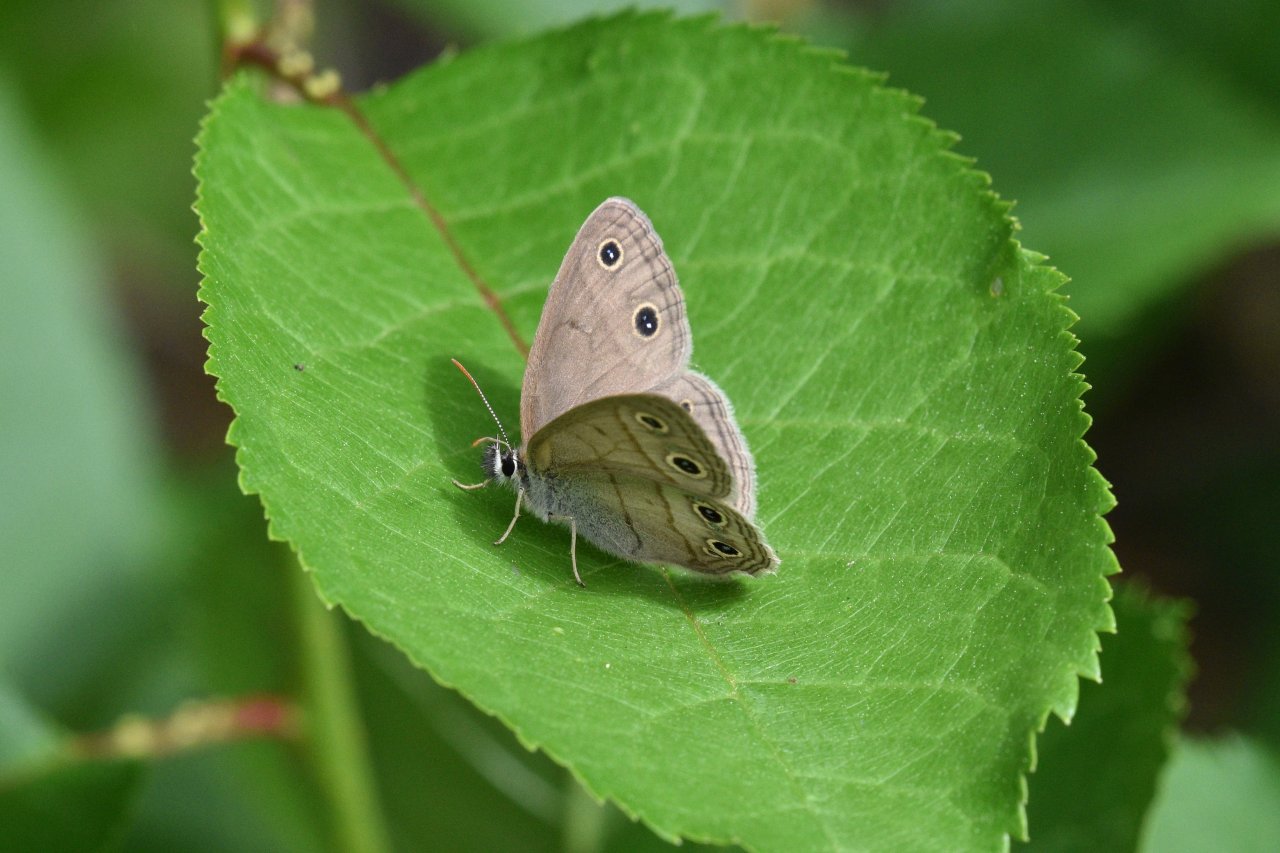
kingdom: Animalia
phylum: Arthropoda
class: Insecta
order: Lepidoptera
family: Nymphalidae
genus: Euptychia
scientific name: Euptychia cymela
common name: Little Wood Satyr
